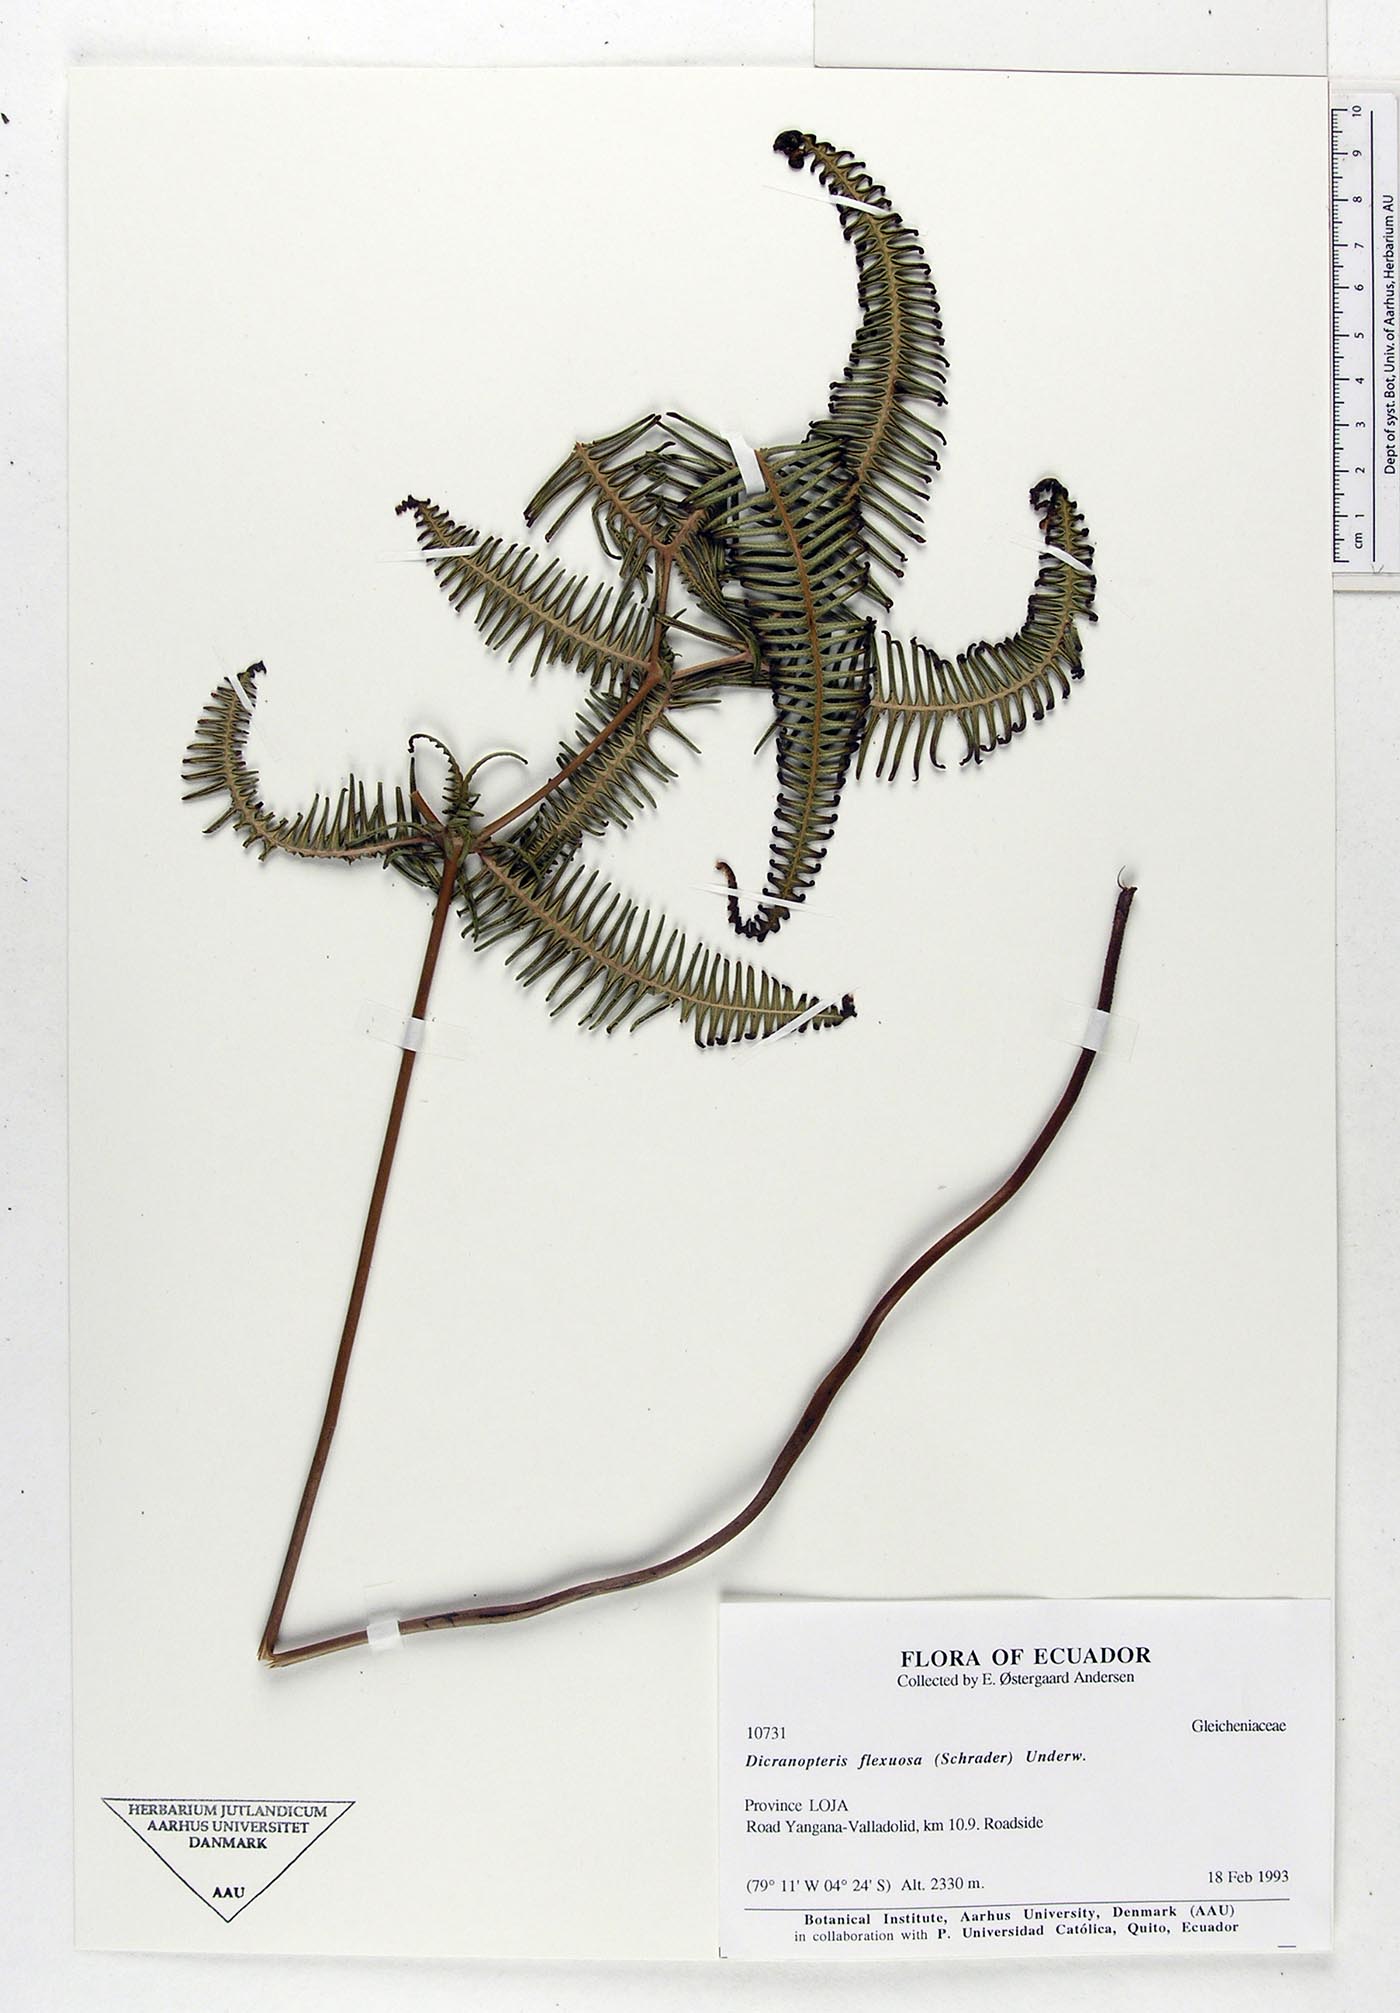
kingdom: Plantae
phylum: Tracheophyta
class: Polypodiopsida
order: Gleicheniales
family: Gleicheniaceae
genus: Dicranopteris
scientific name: Dicranopteris flexuosa
